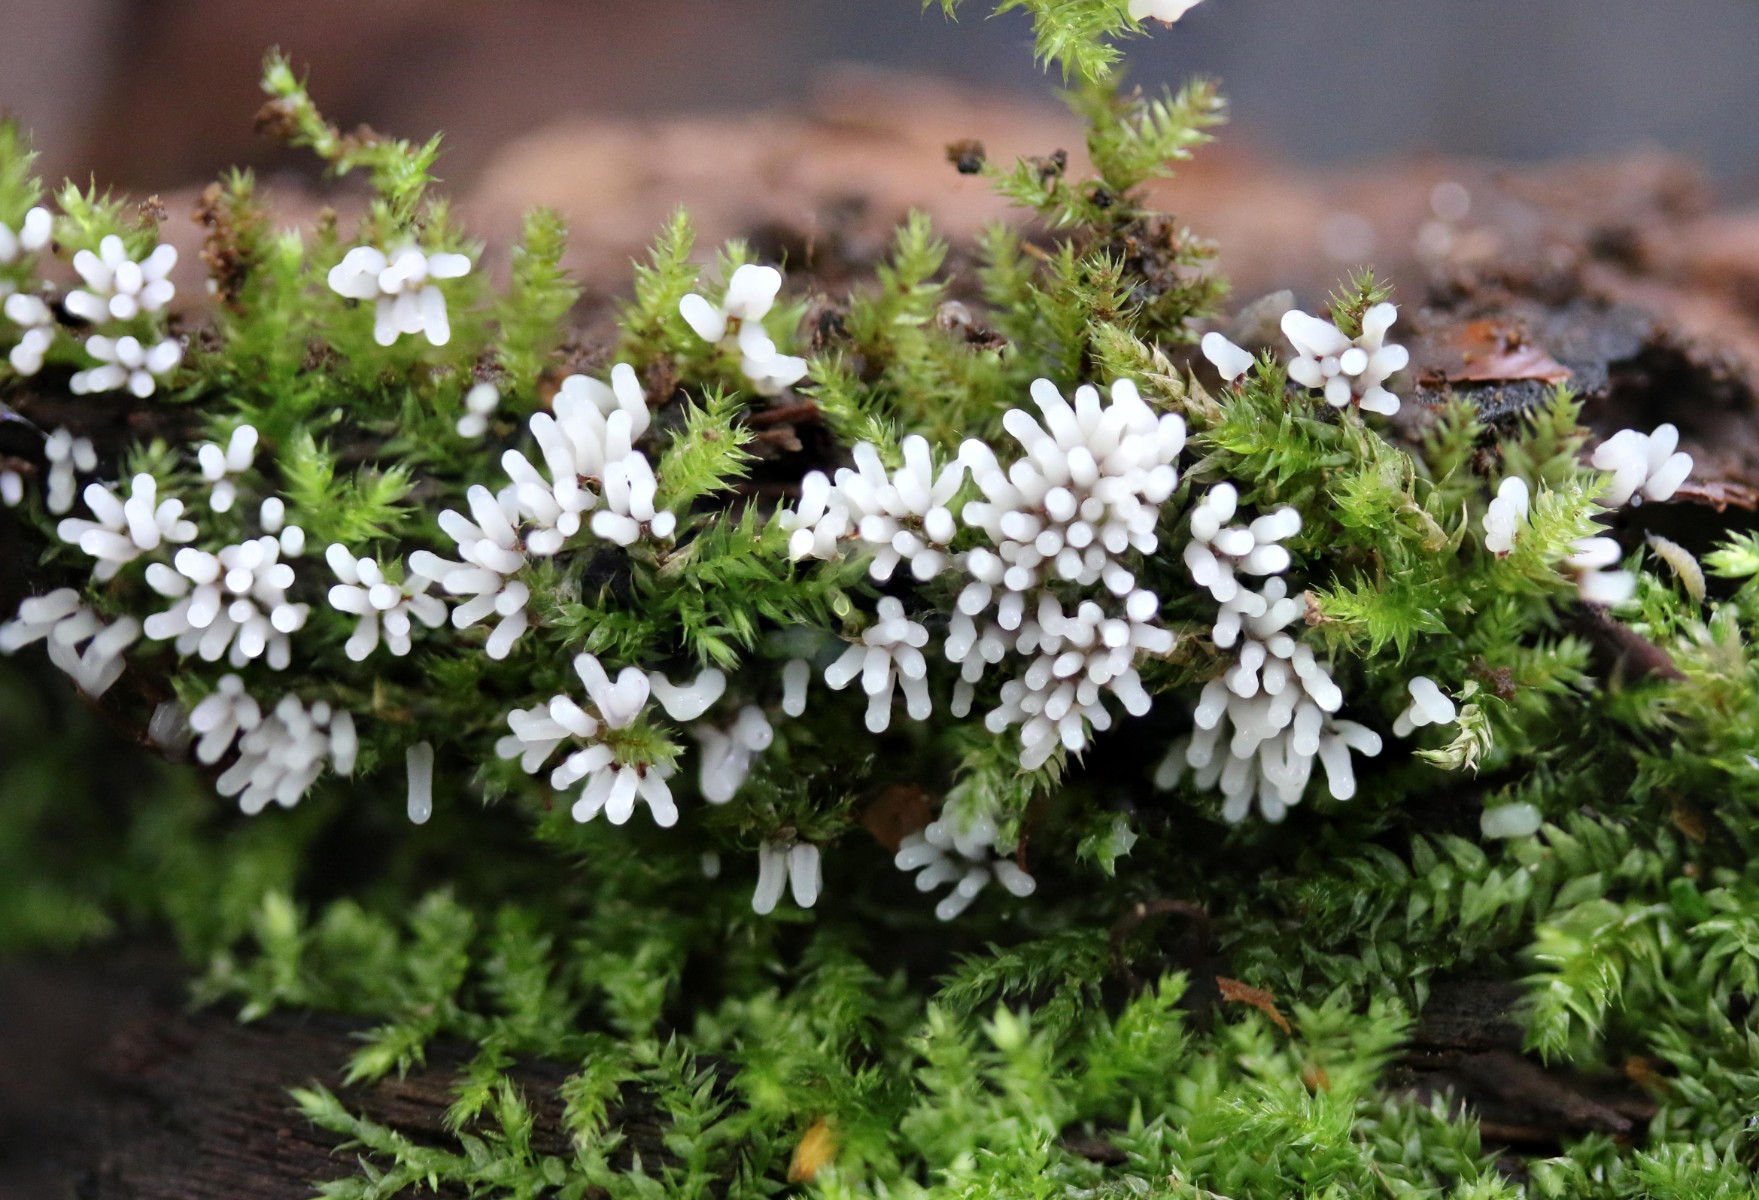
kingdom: Protozoa
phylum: Mycetozoa
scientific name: Mycetozoa
